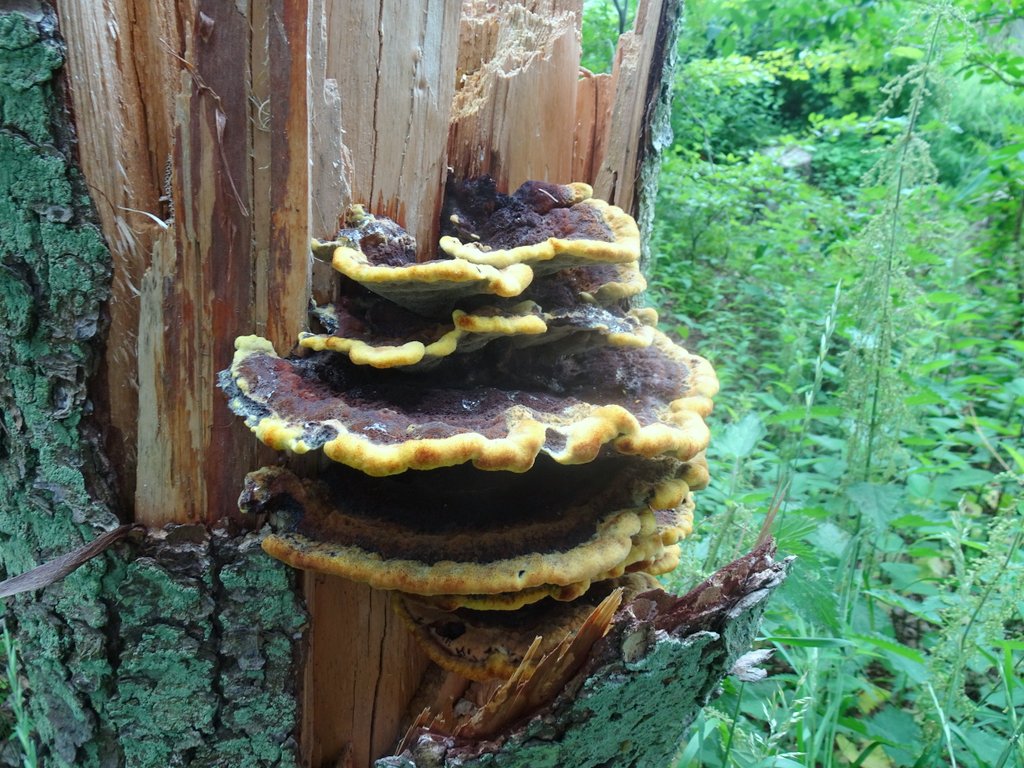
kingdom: Fungi
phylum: Basidiomycota
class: Agaricomycetes
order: Polyporales
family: Laetiporaceae
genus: Phaeolus
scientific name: Phaeolus schweinitzii
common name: brunporesvamp
